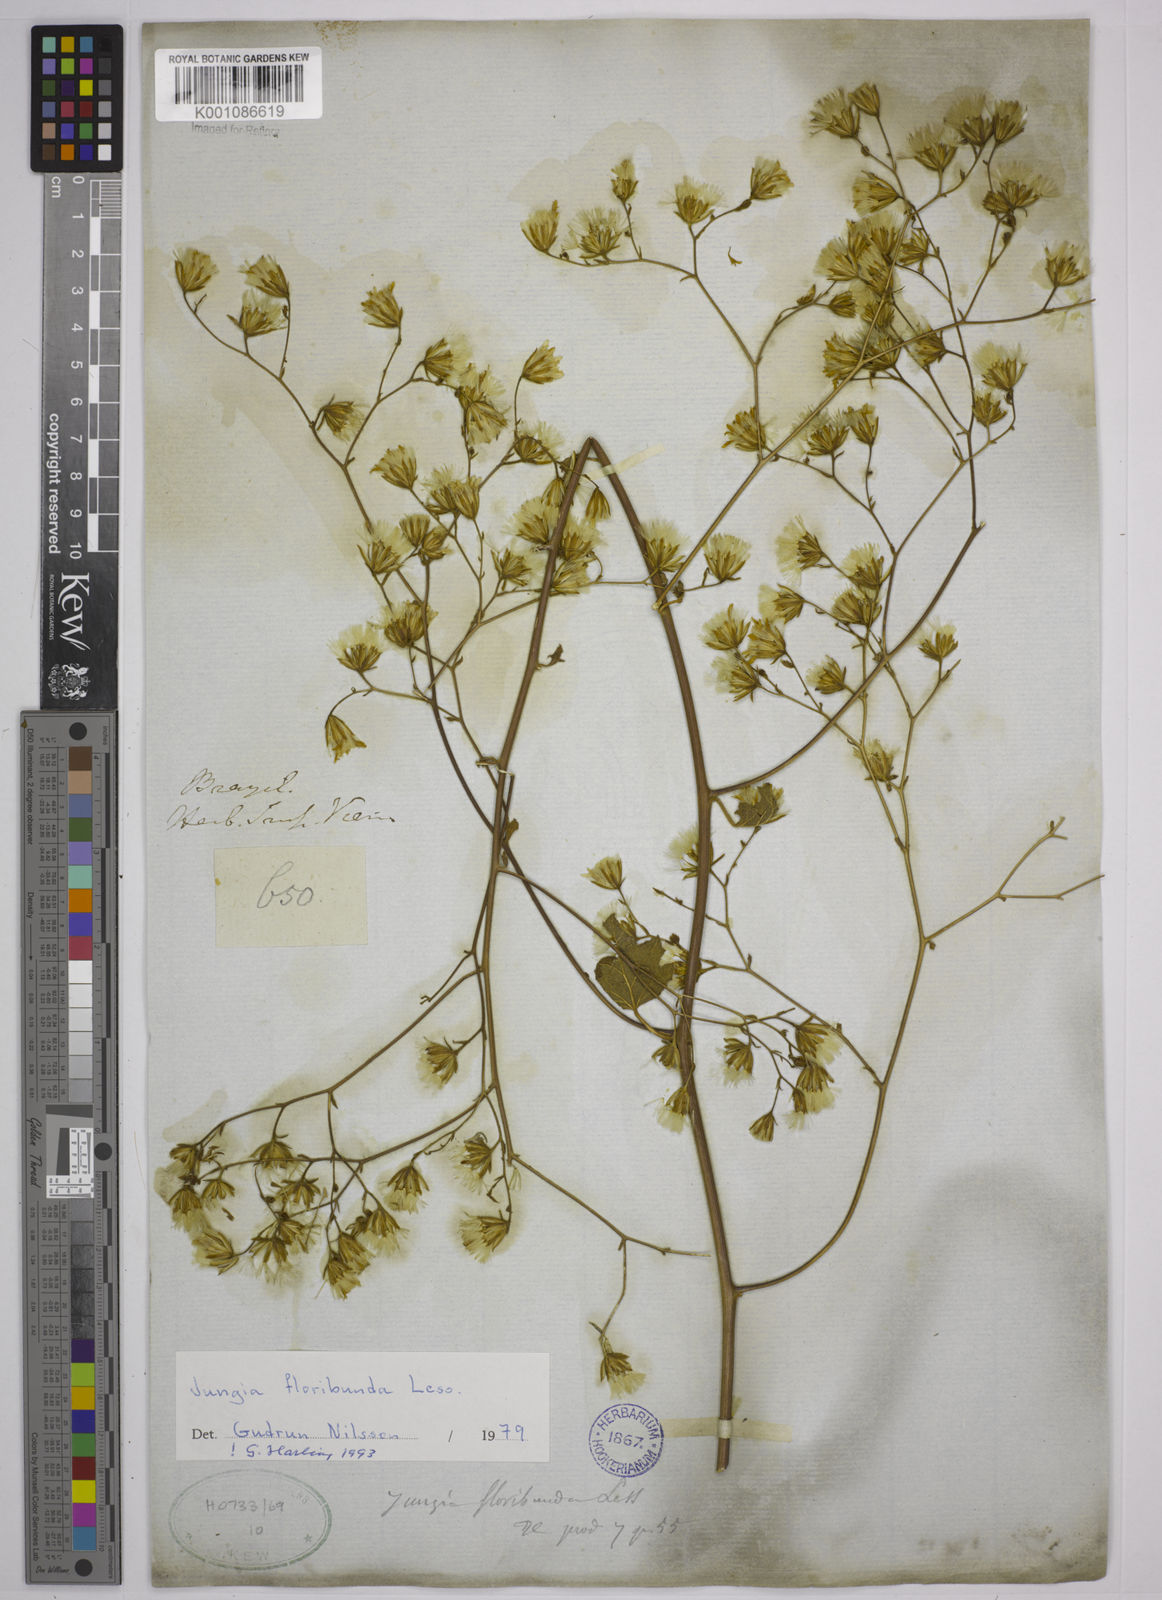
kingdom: Plantae
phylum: Tracheophyta
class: Magnoliopsida
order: Asterales
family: Asteraceae
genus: Jungia
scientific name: Jungia floribunda
